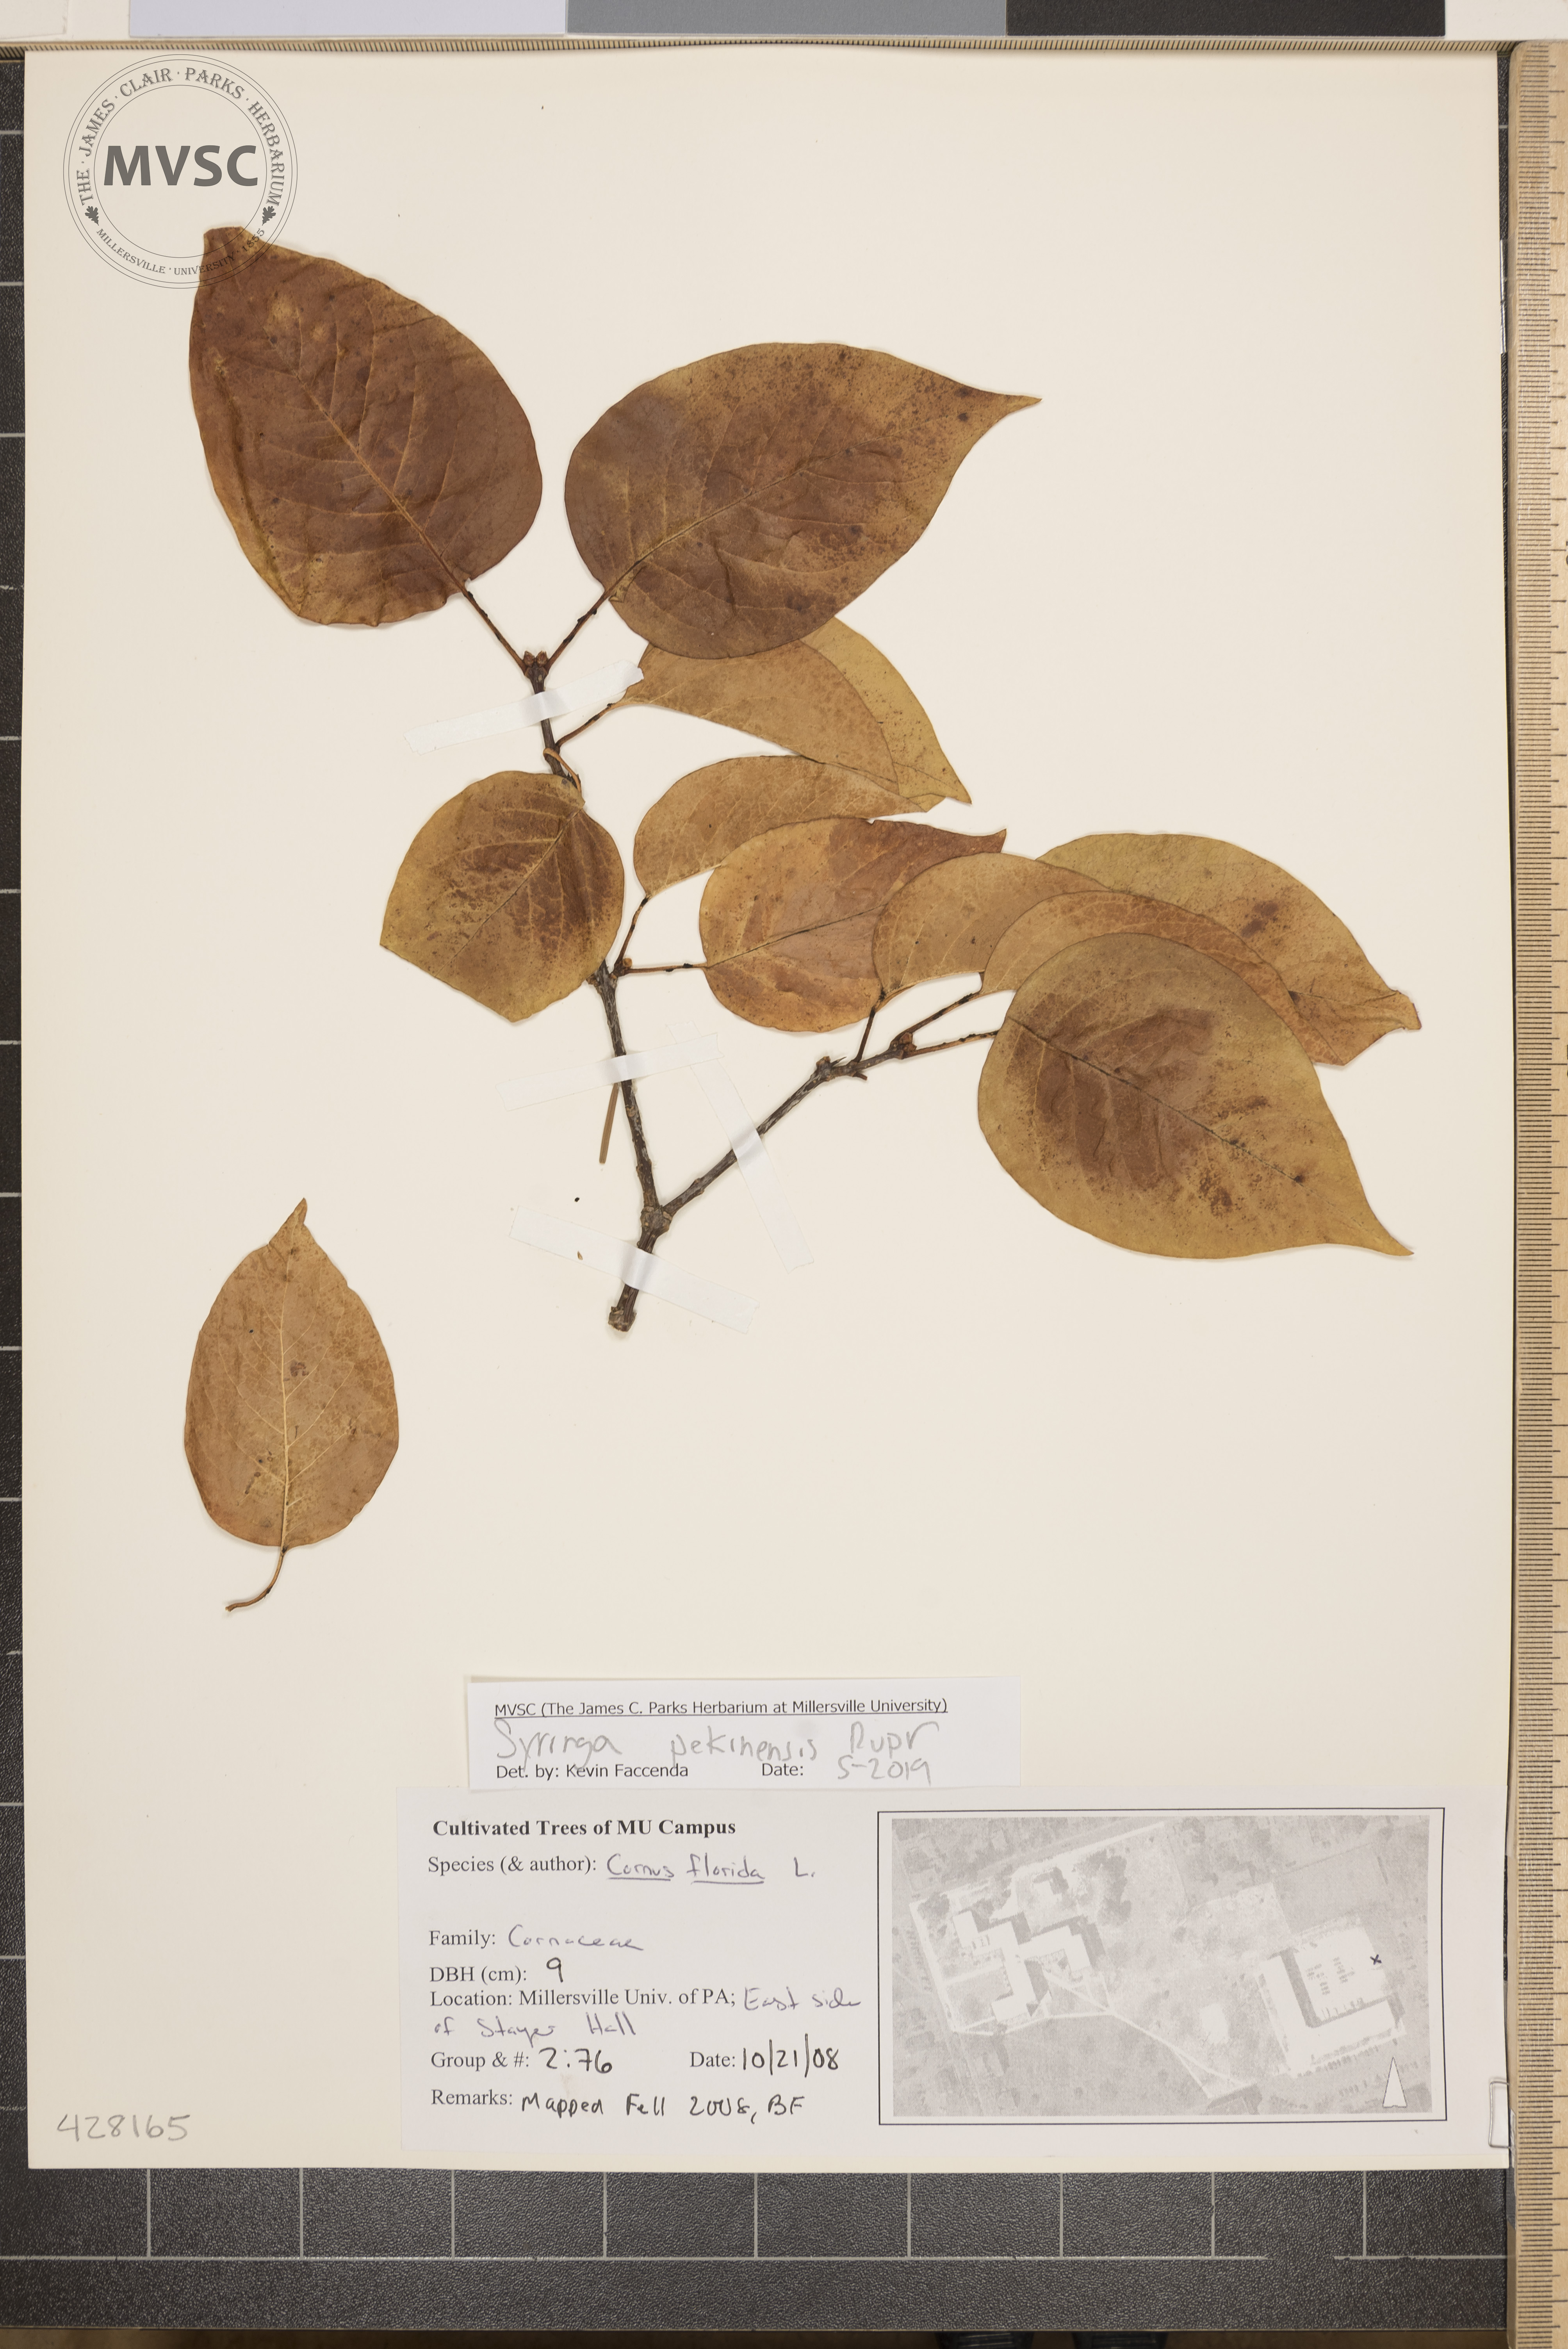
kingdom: Plantae
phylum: Tracheophyta
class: Magnoliopsida
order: Lamiales
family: Oleaceae
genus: Syringa
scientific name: Syringa reticulata
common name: Japanese tree lilac
